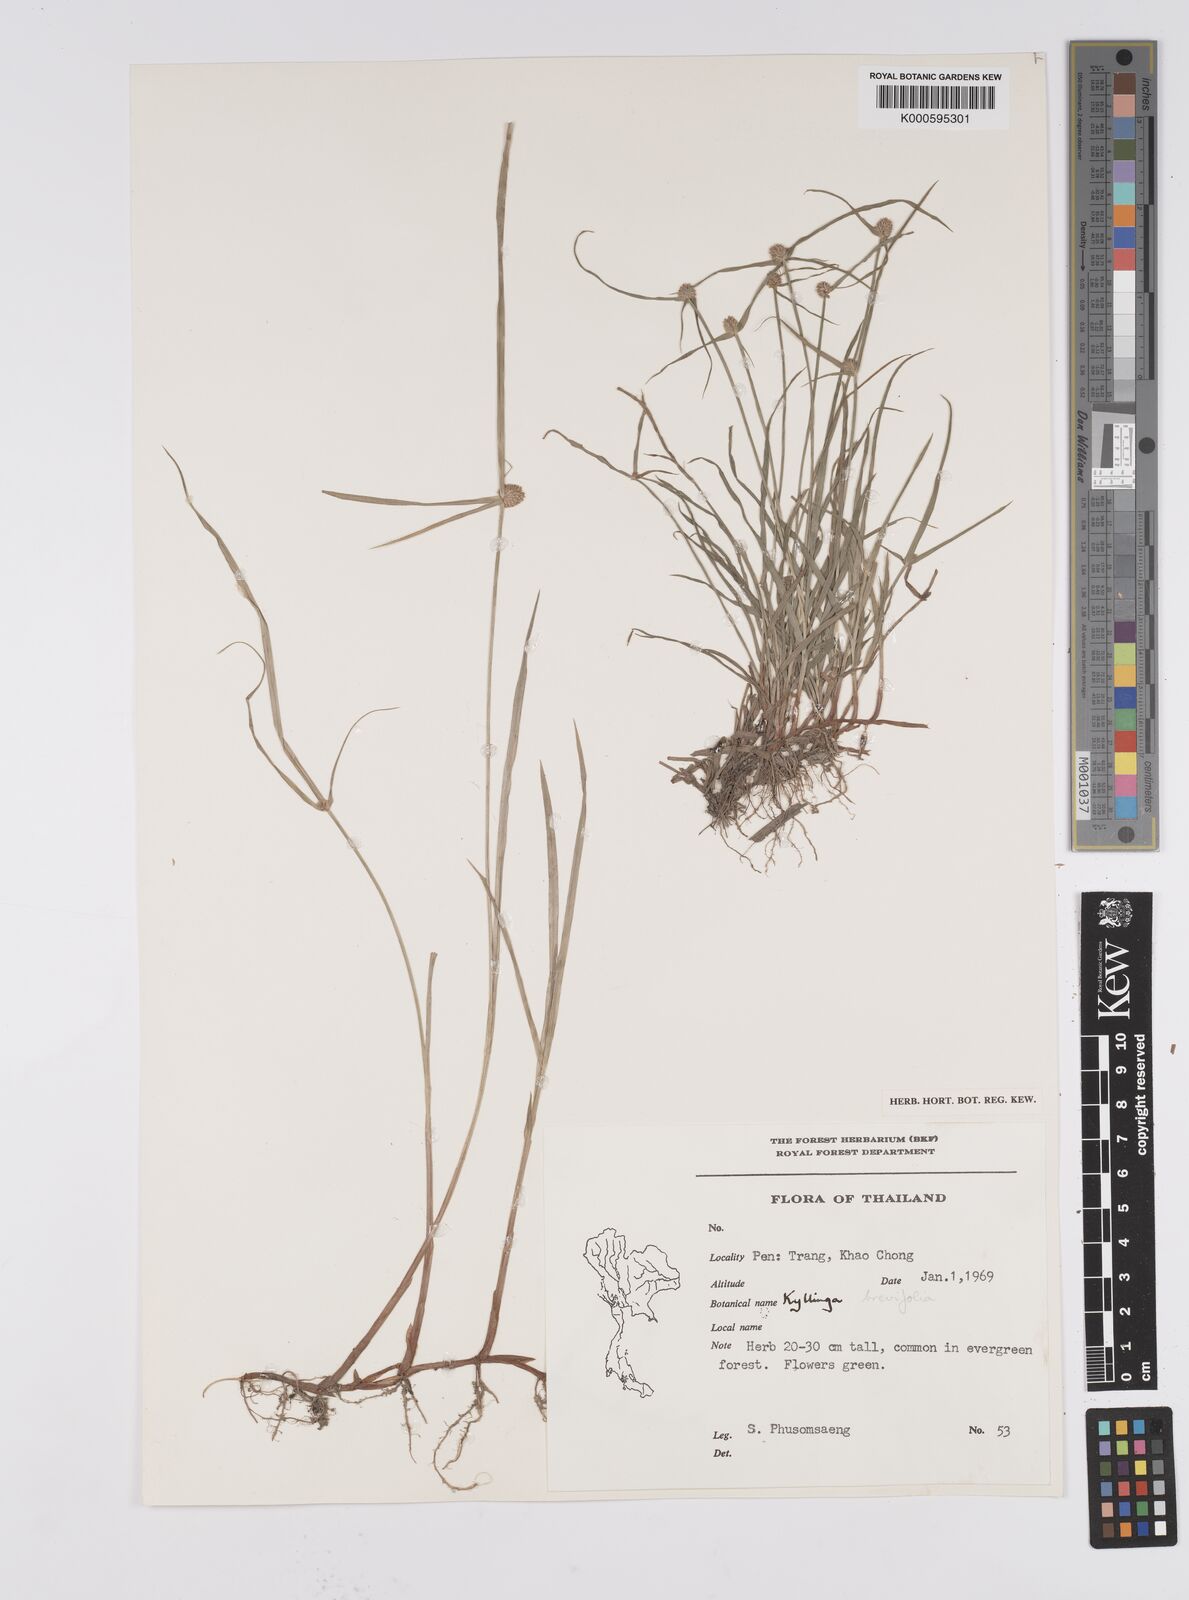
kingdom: Plantae
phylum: Tracheophyta
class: Liliopsida
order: Poales
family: Cyperaceae
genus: Cyperus
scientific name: Cyperus brevifolius
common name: Globe kyllinga
